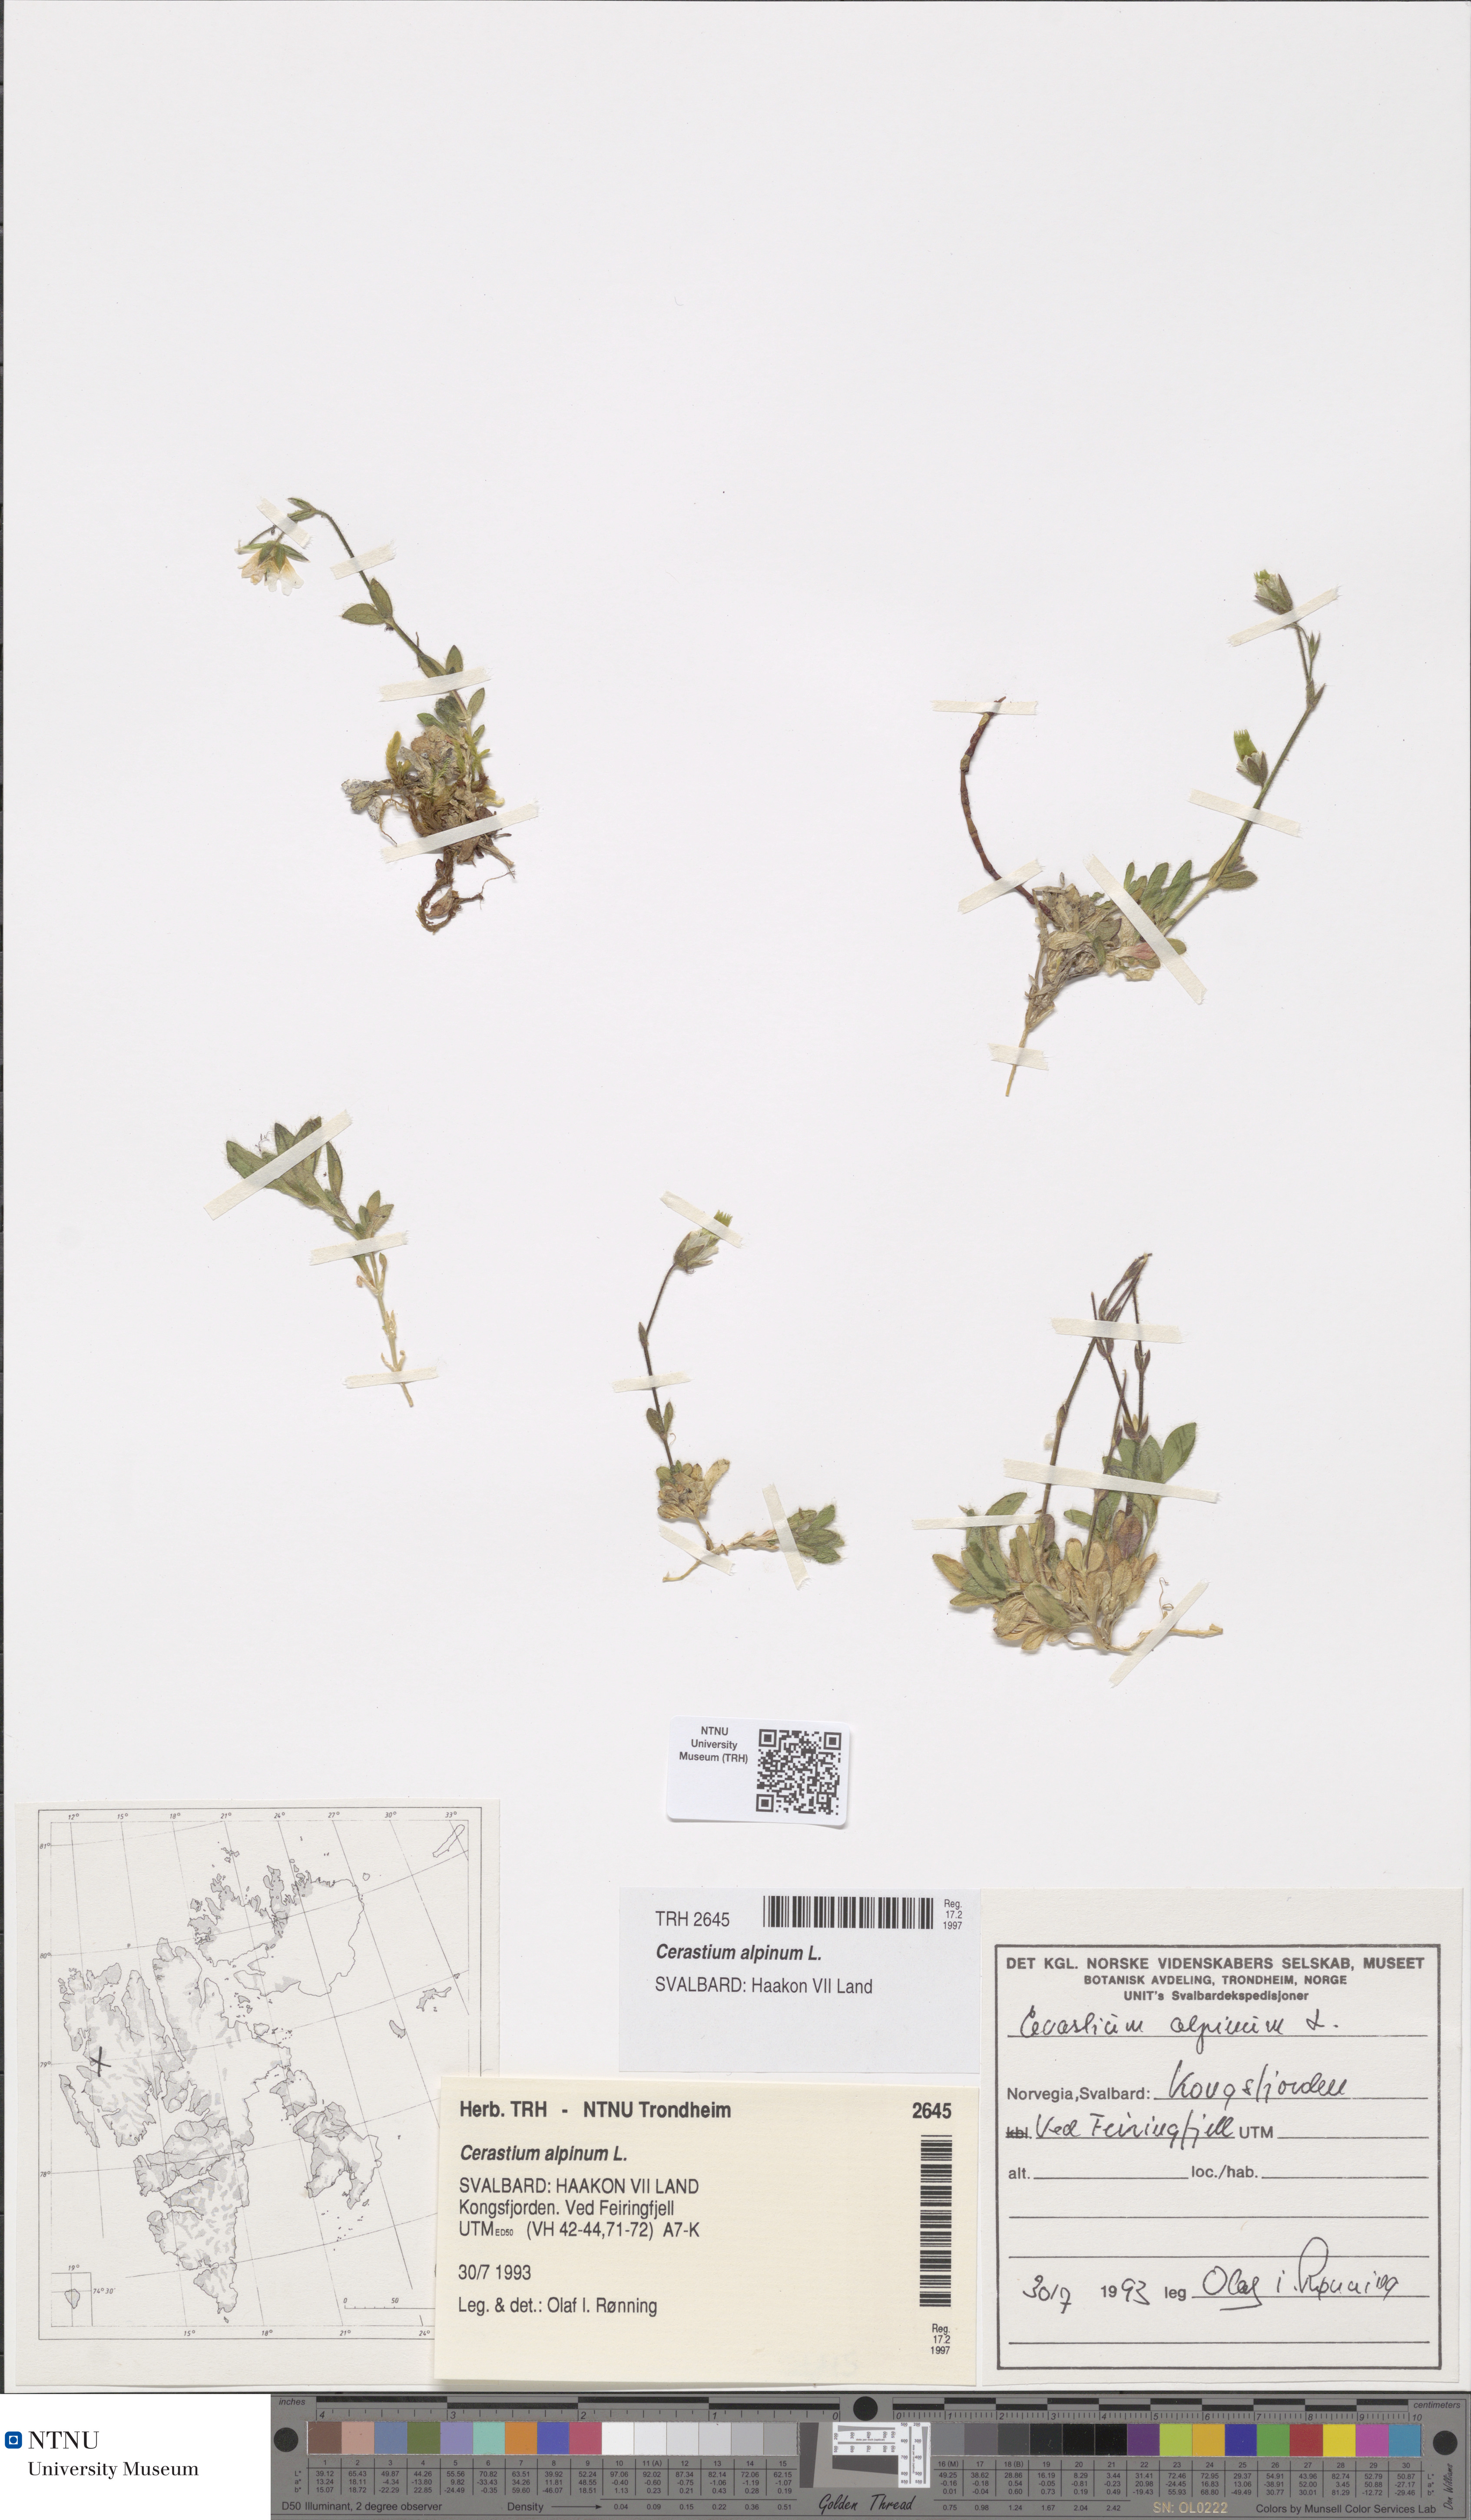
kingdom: Plantae
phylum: Tracheophyta
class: Magnoliopsida
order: Caryophyllales
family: Caryophyllaceae
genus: Cerastium
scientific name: Cerastium alpinum
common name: Alpine mouse-ear
